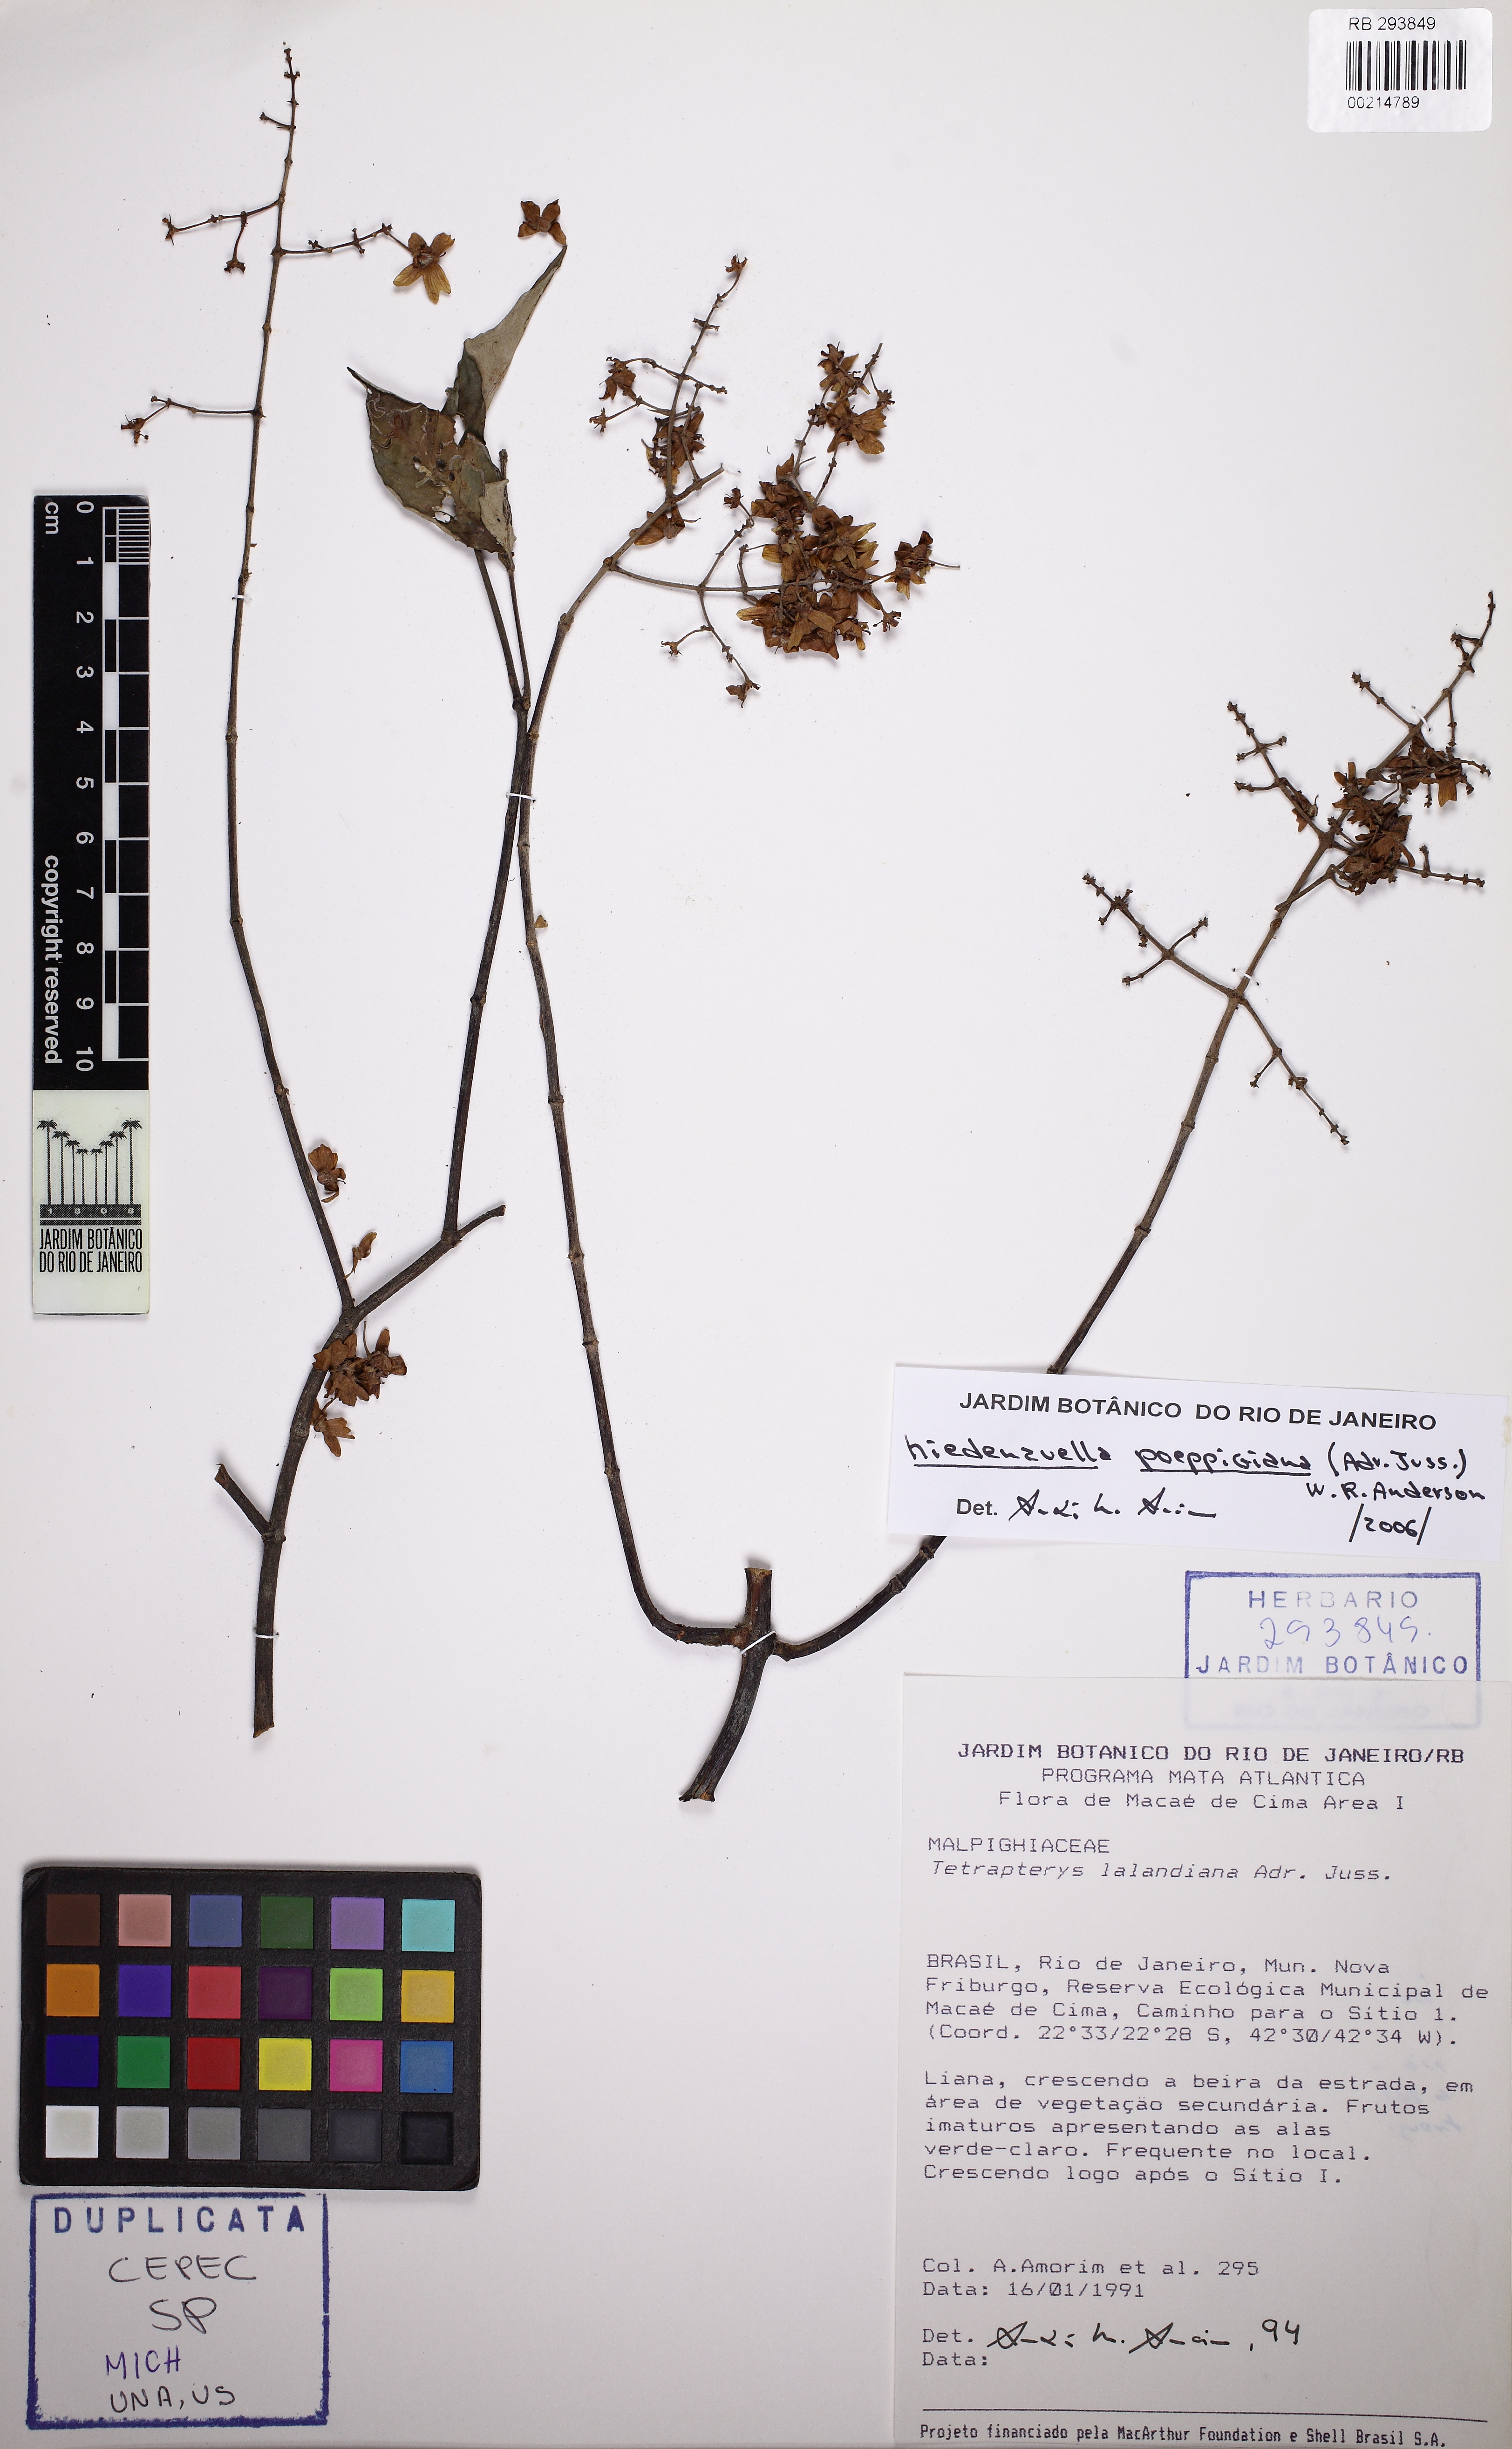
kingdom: Plantae
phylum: Tracheophyta
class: Magnoliopsida
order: Malpighiales
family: Malpighiaceae
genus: Niedenzuella
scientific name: Niedenzuella poeppigiana
